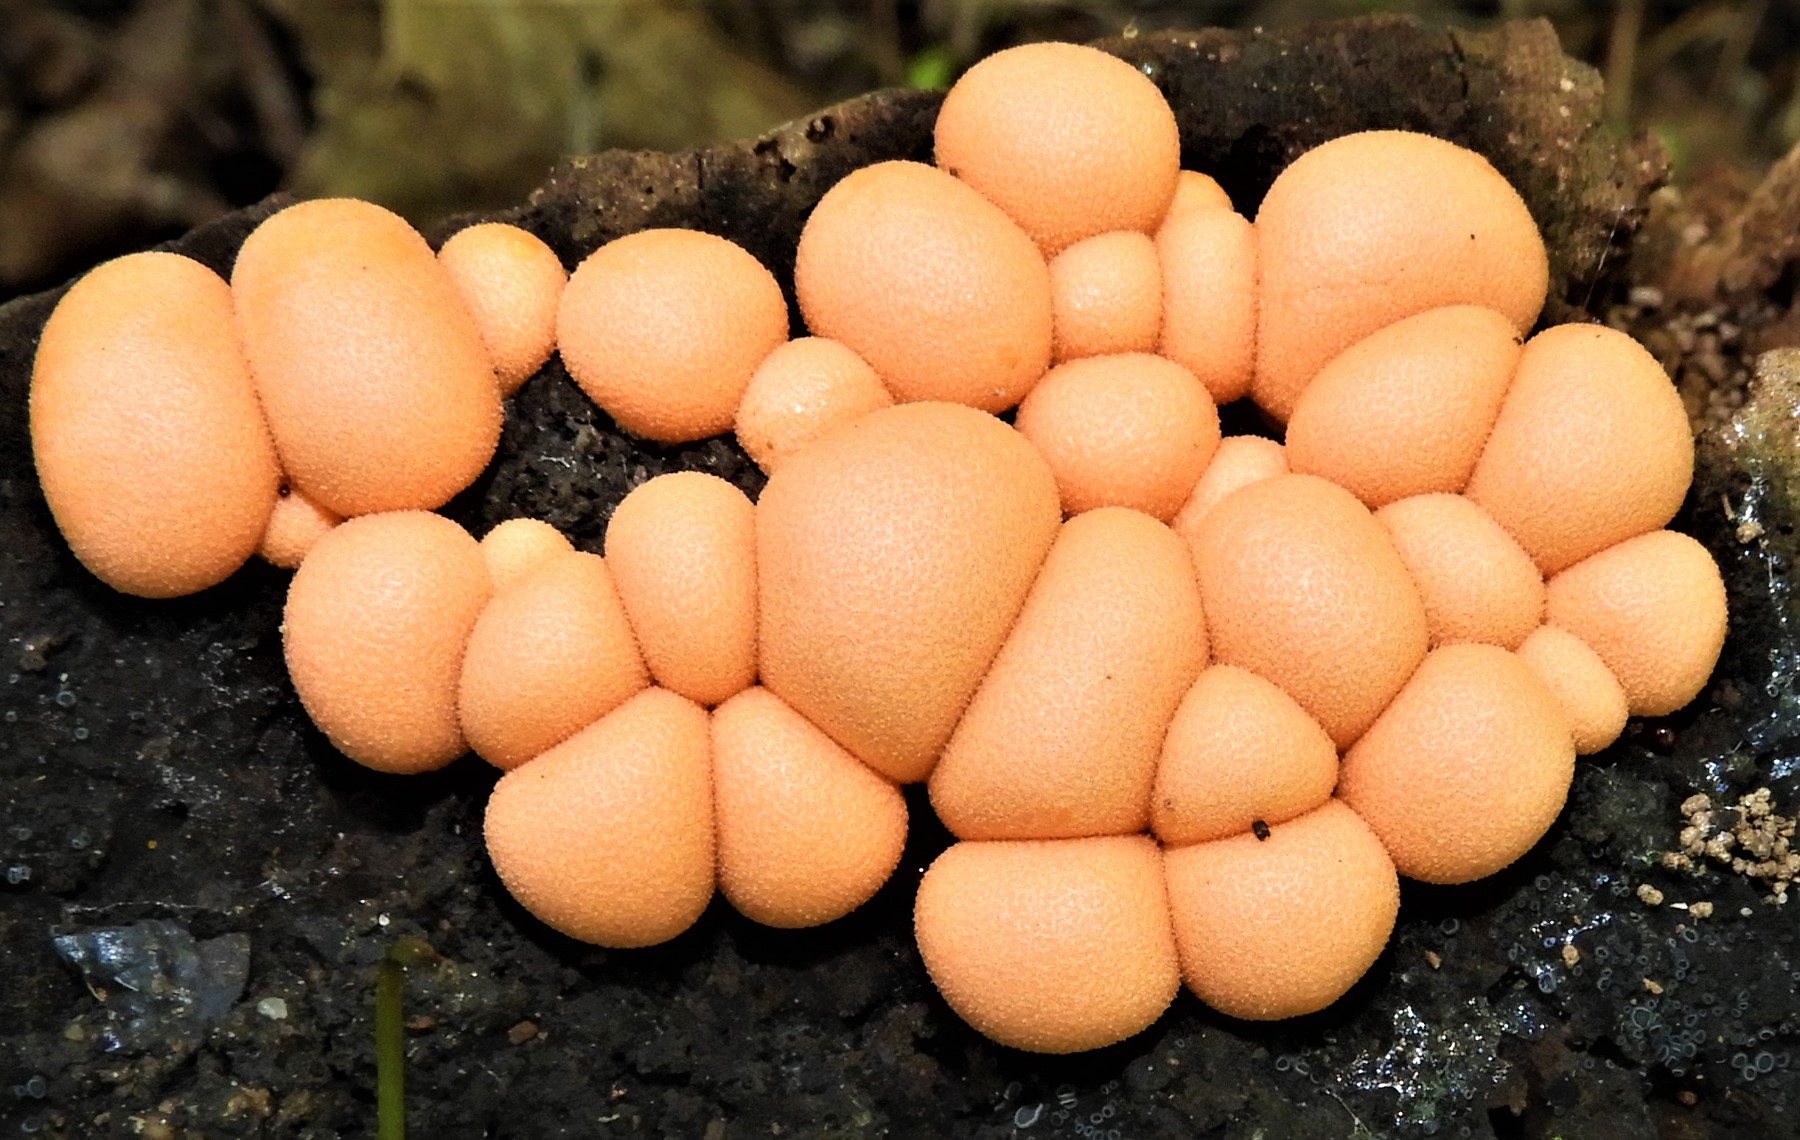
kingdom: Protozoa
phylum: Mycetozoa
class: Myxomycetes
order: Cribrariales
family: Tubiferaceae
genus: Lycogala
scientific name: Lycogala epidendrum
